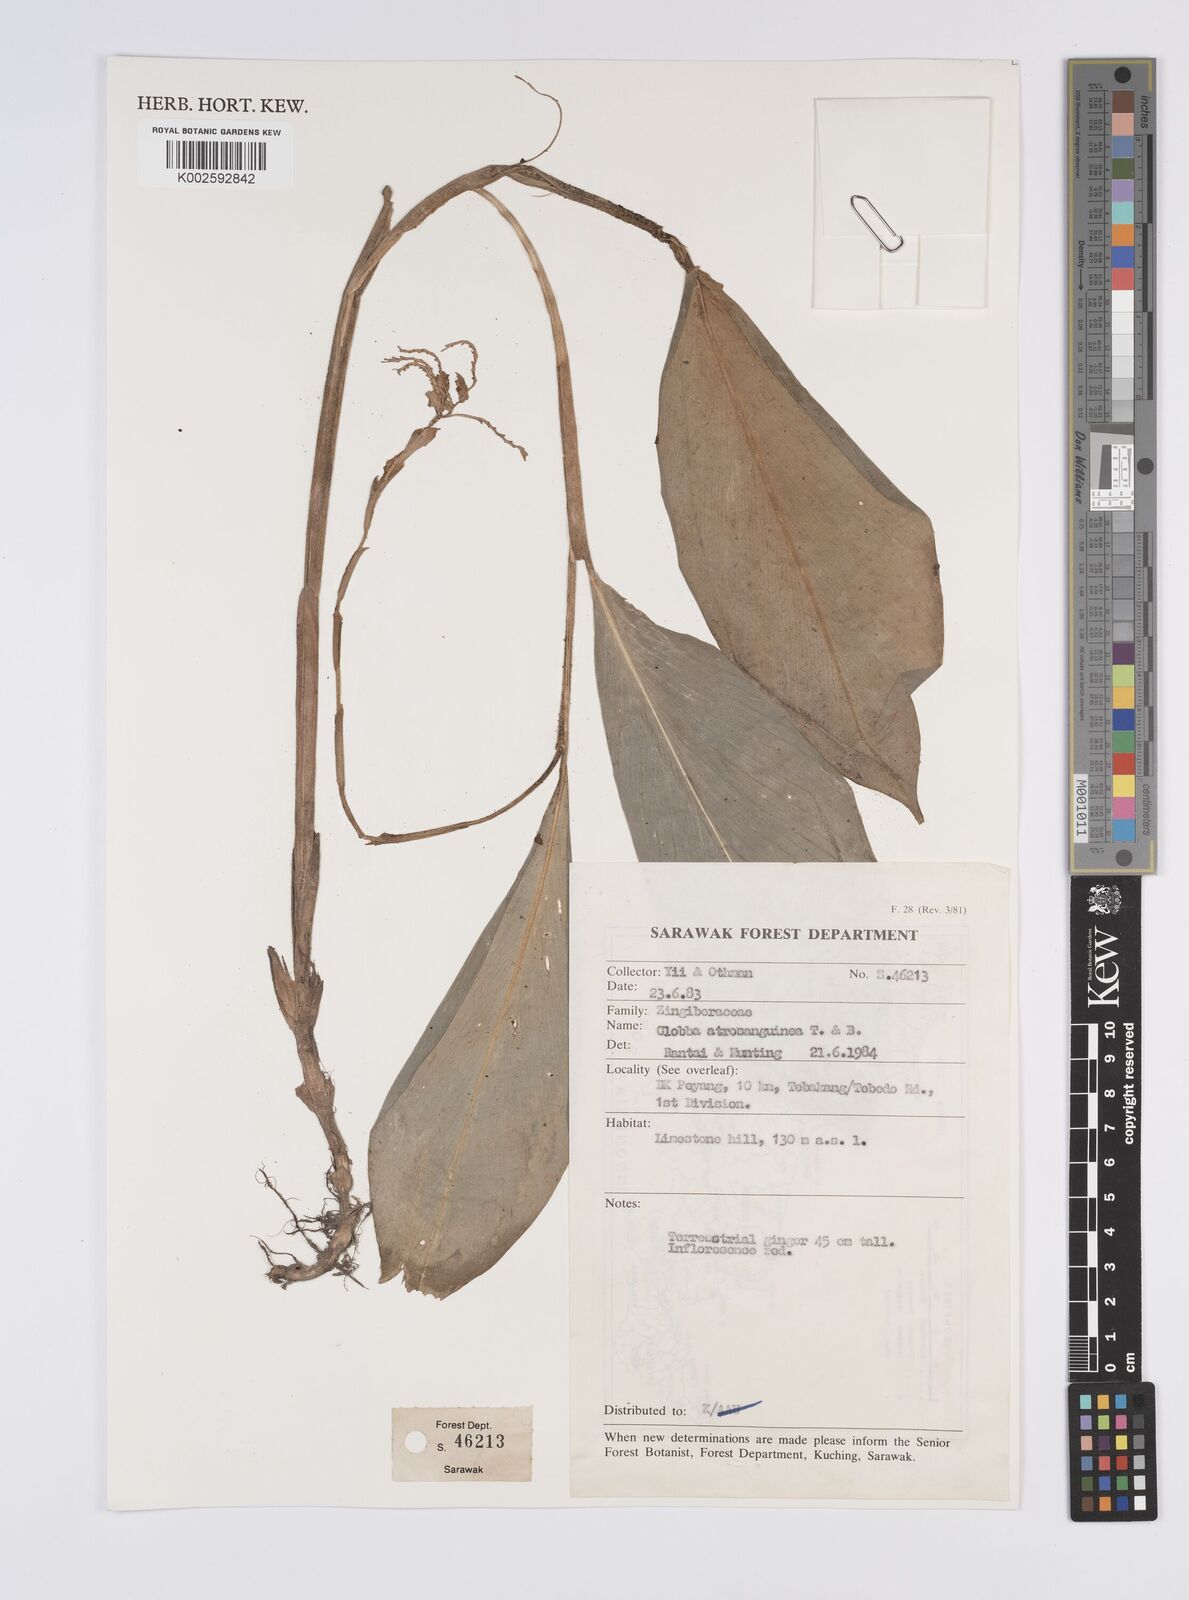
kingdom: Plantae
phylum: Tracheophyta
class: Liliopsida
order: Zingiberales
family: Zingiberaceae
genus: Globba
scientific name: Globba atrosanguinea
